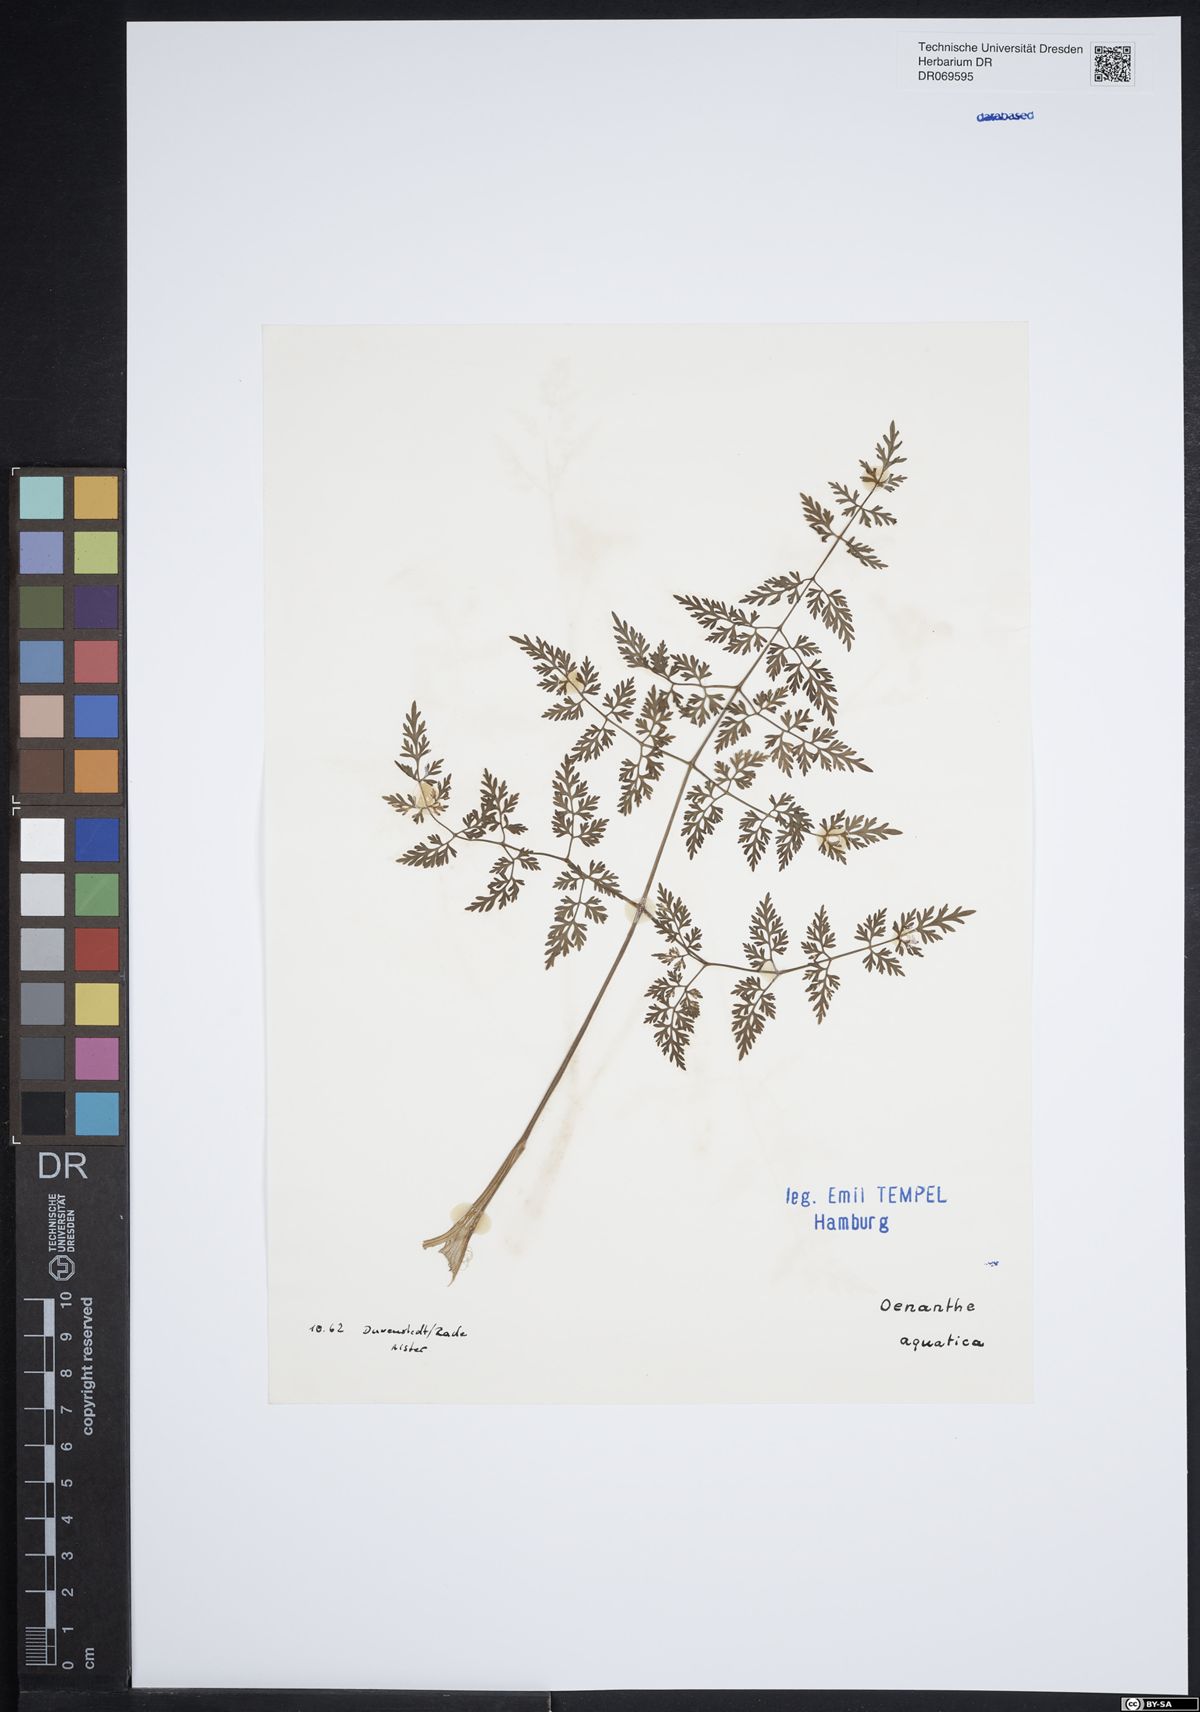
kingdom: Plantae
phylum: Tracheophyta
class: Magnoliopsida
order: Apiales
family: Apiaceae
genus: Oenanthe
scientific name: Oenanthe aquatica
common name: Fine-leaved water-dropwort
